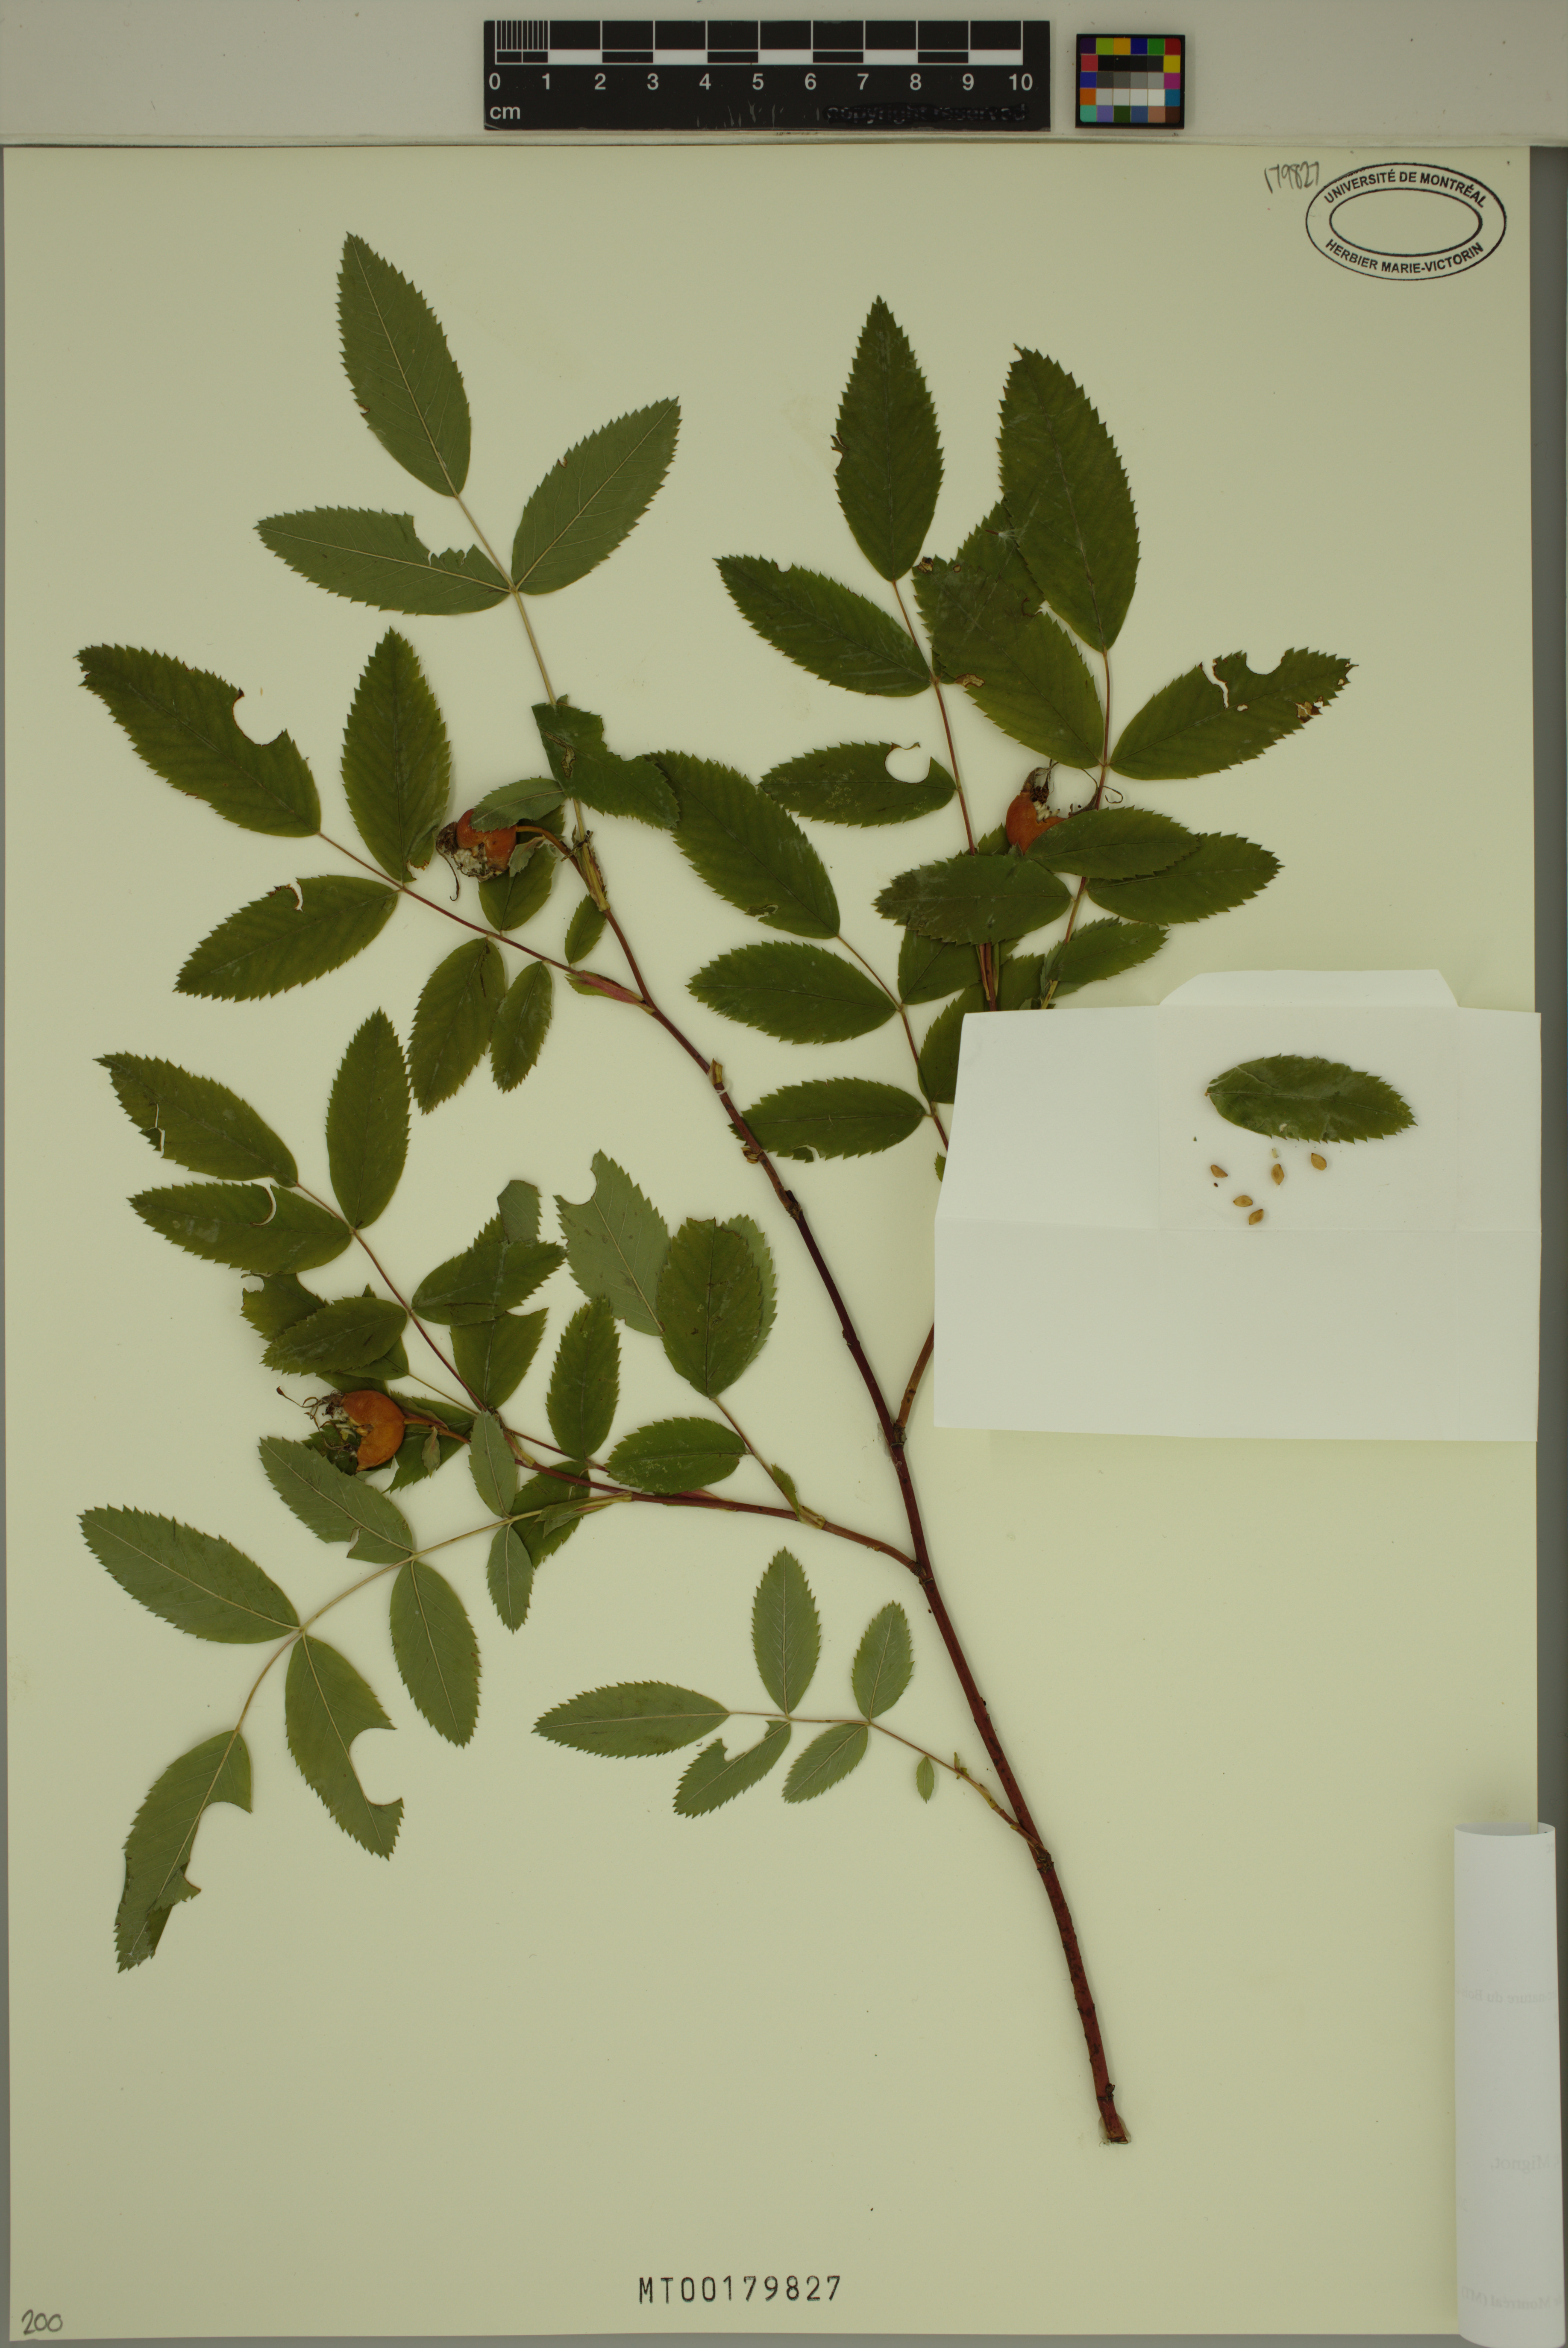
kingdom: Plantae
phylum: Tracheophyta
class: Magnoliopsida
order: Rosales
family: Rosaceae
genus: Rosa
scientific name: Rosa blanda
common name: Smooth rose
